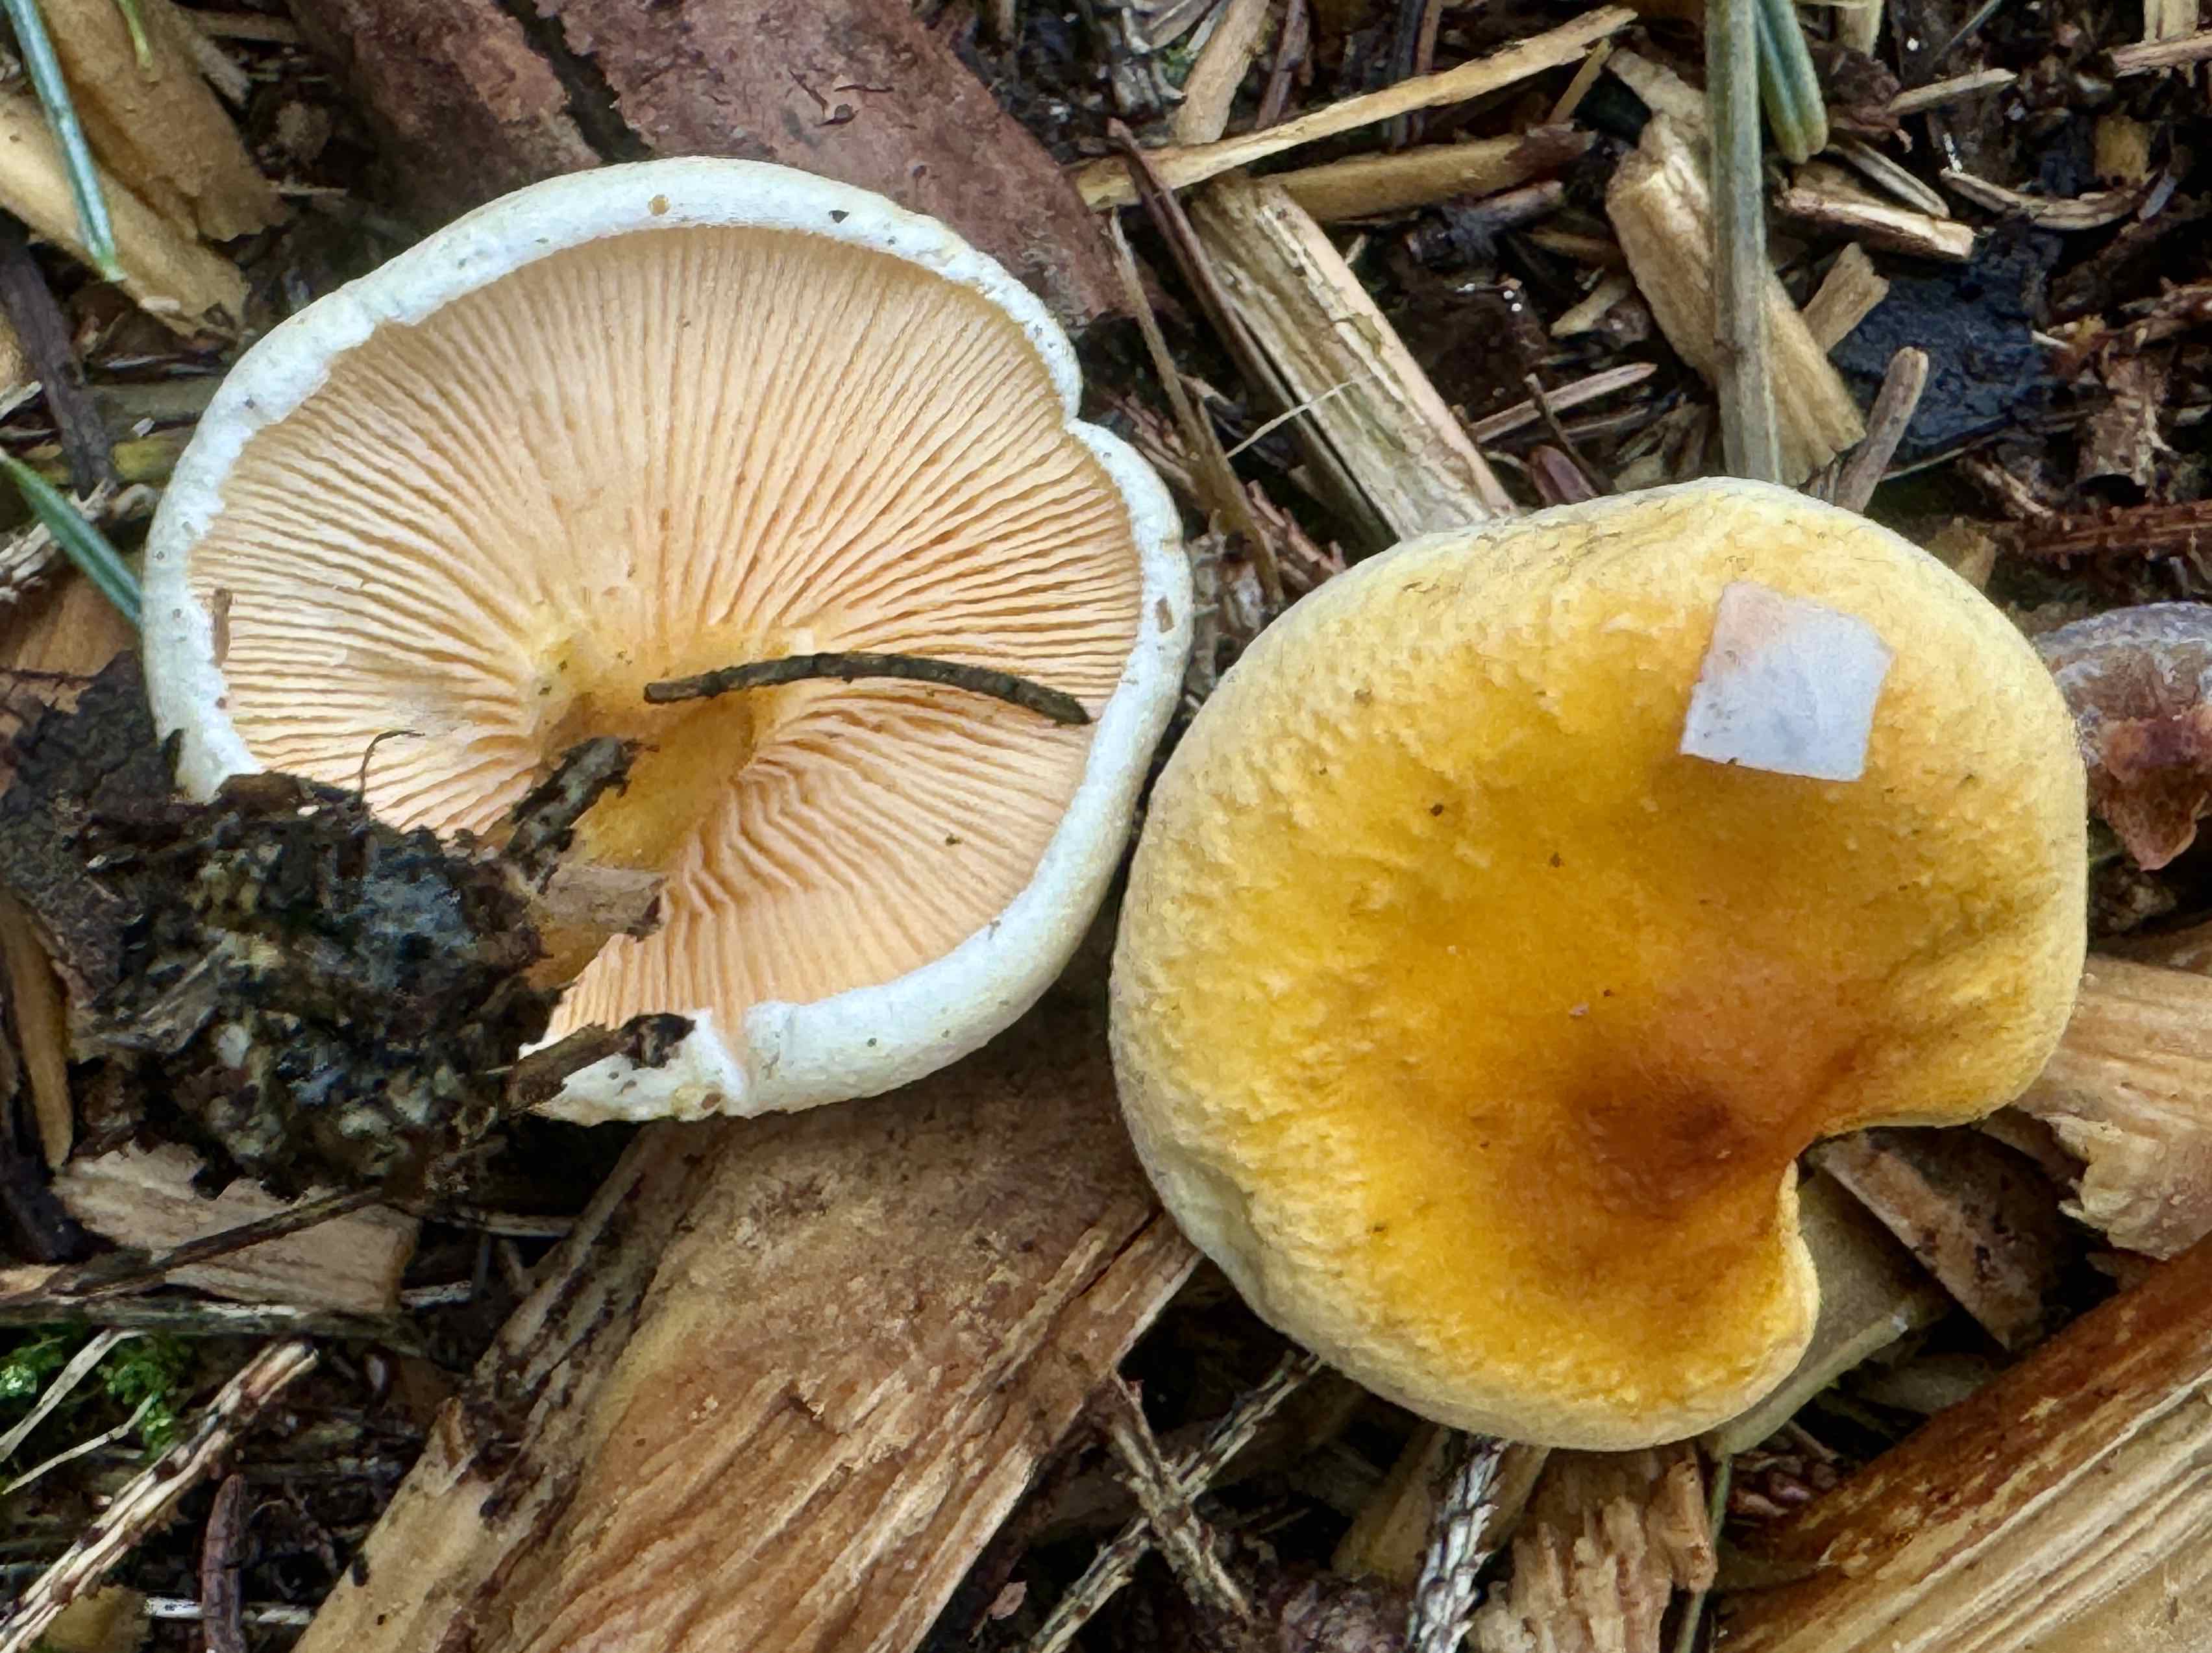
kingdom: Fungi
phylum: Basidiomycota
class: Agaricomycetes
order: Boletales
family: Hygrophoropsidaceae
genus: Hygrophoropsis
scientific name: Hygrophoropsis aurantiaca
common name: almindelig orangekantarel
